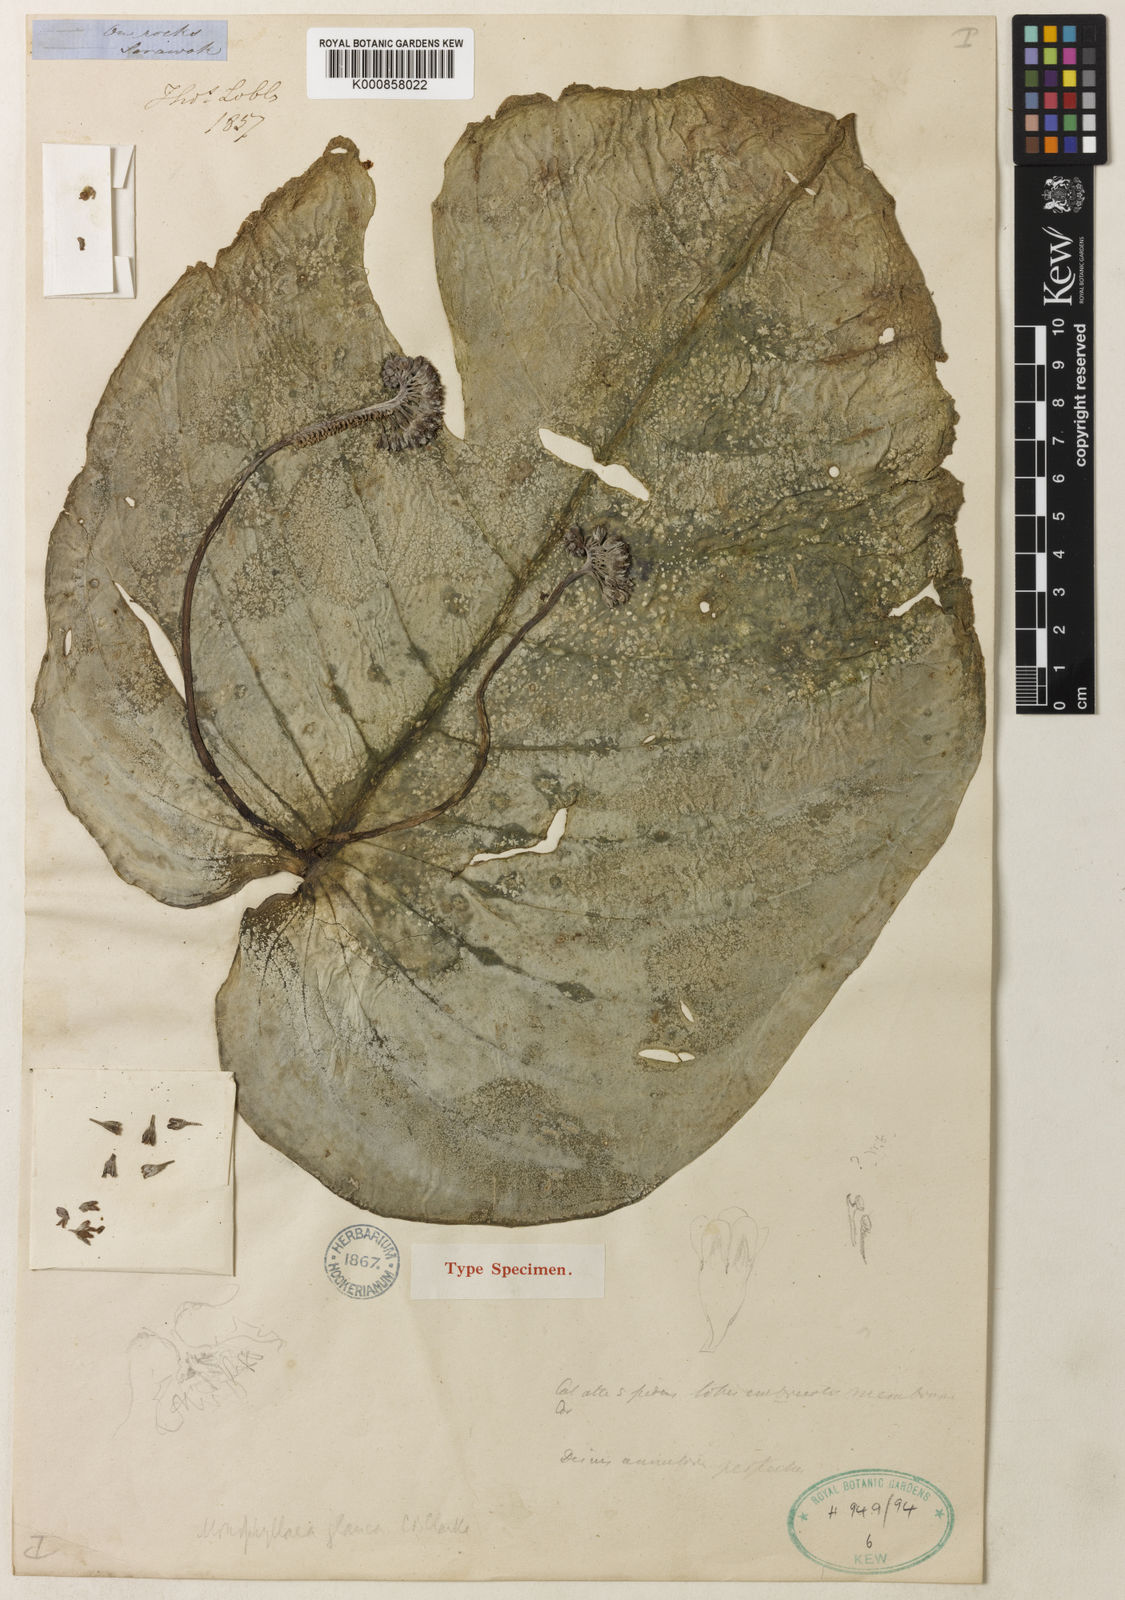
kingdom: Plantae
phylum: Tracheophyta
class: Magnoliopsida
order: Lamiales
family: Gesneriaceae
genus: Monophyllaea
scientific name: Monophyllaea glauca
